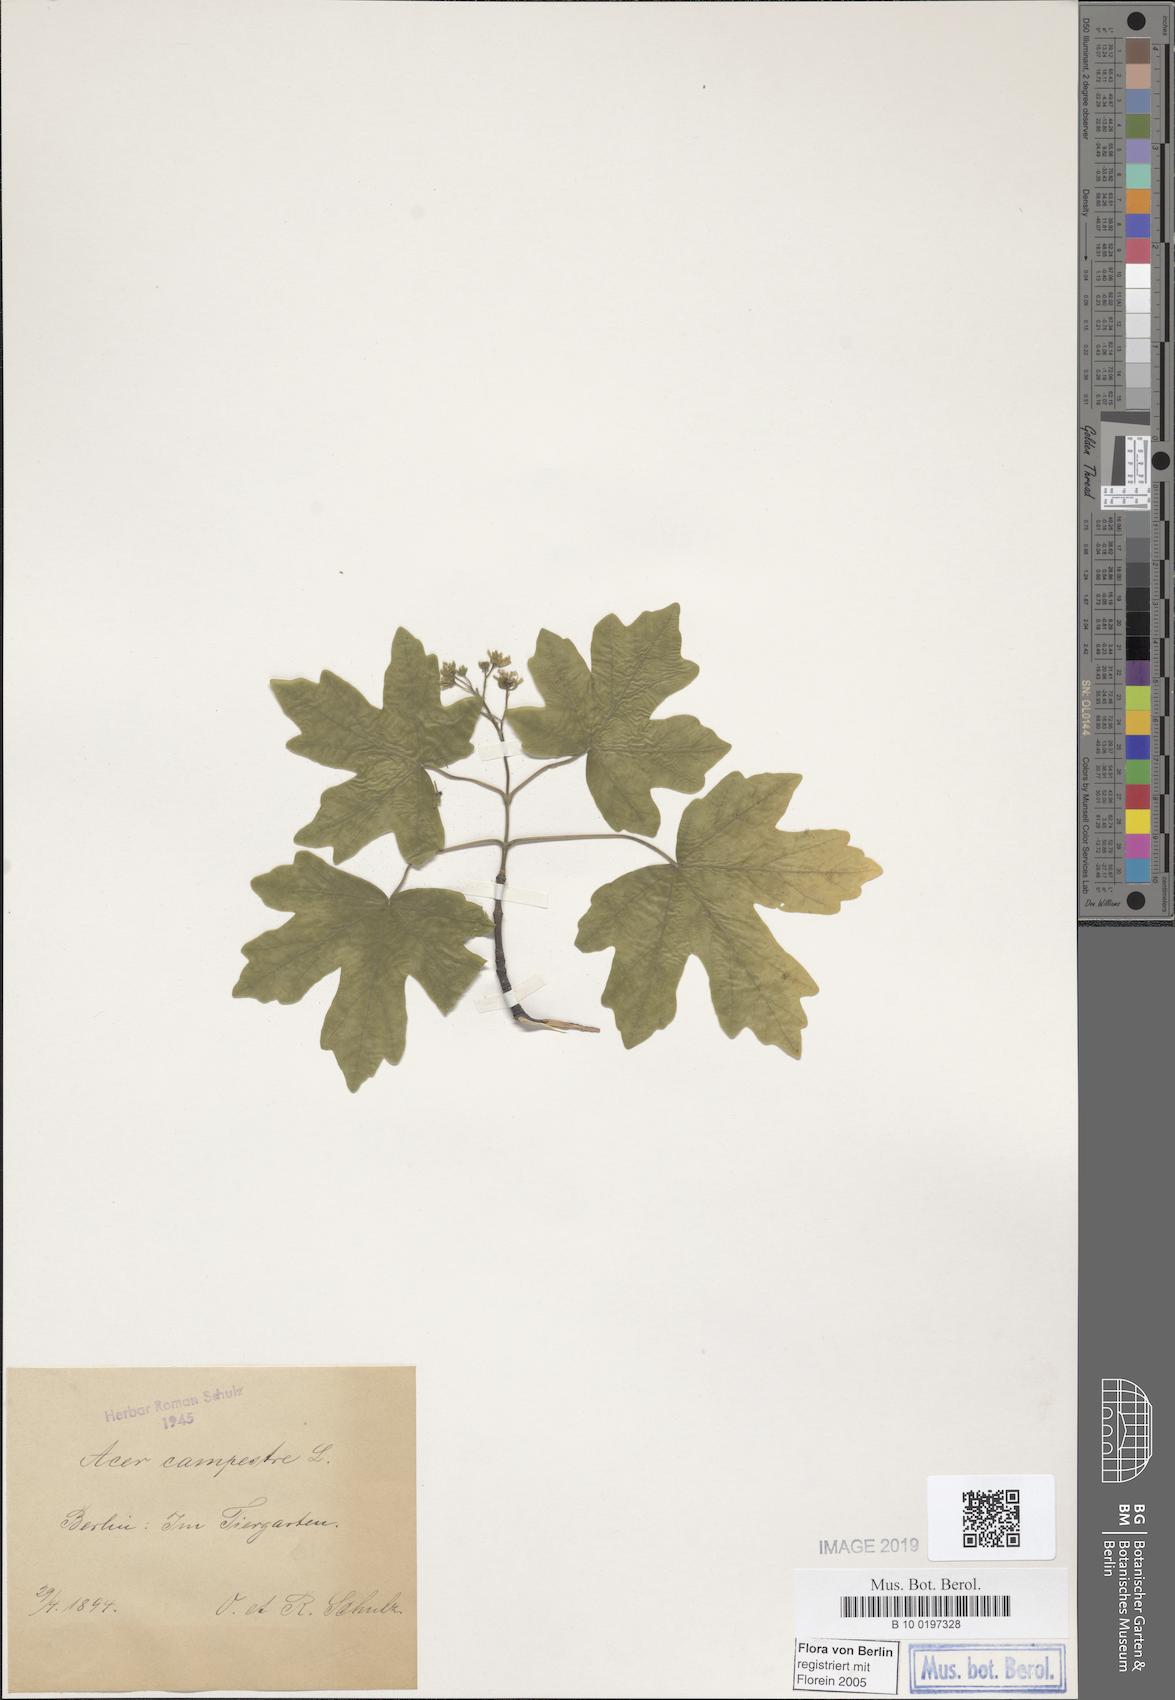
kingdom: Plantae
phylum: Tracheophyta
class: Magnoliopsida
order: Sapindales
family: Sapindaceae
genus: Acer
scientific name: Acer campestre
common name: Field maple
